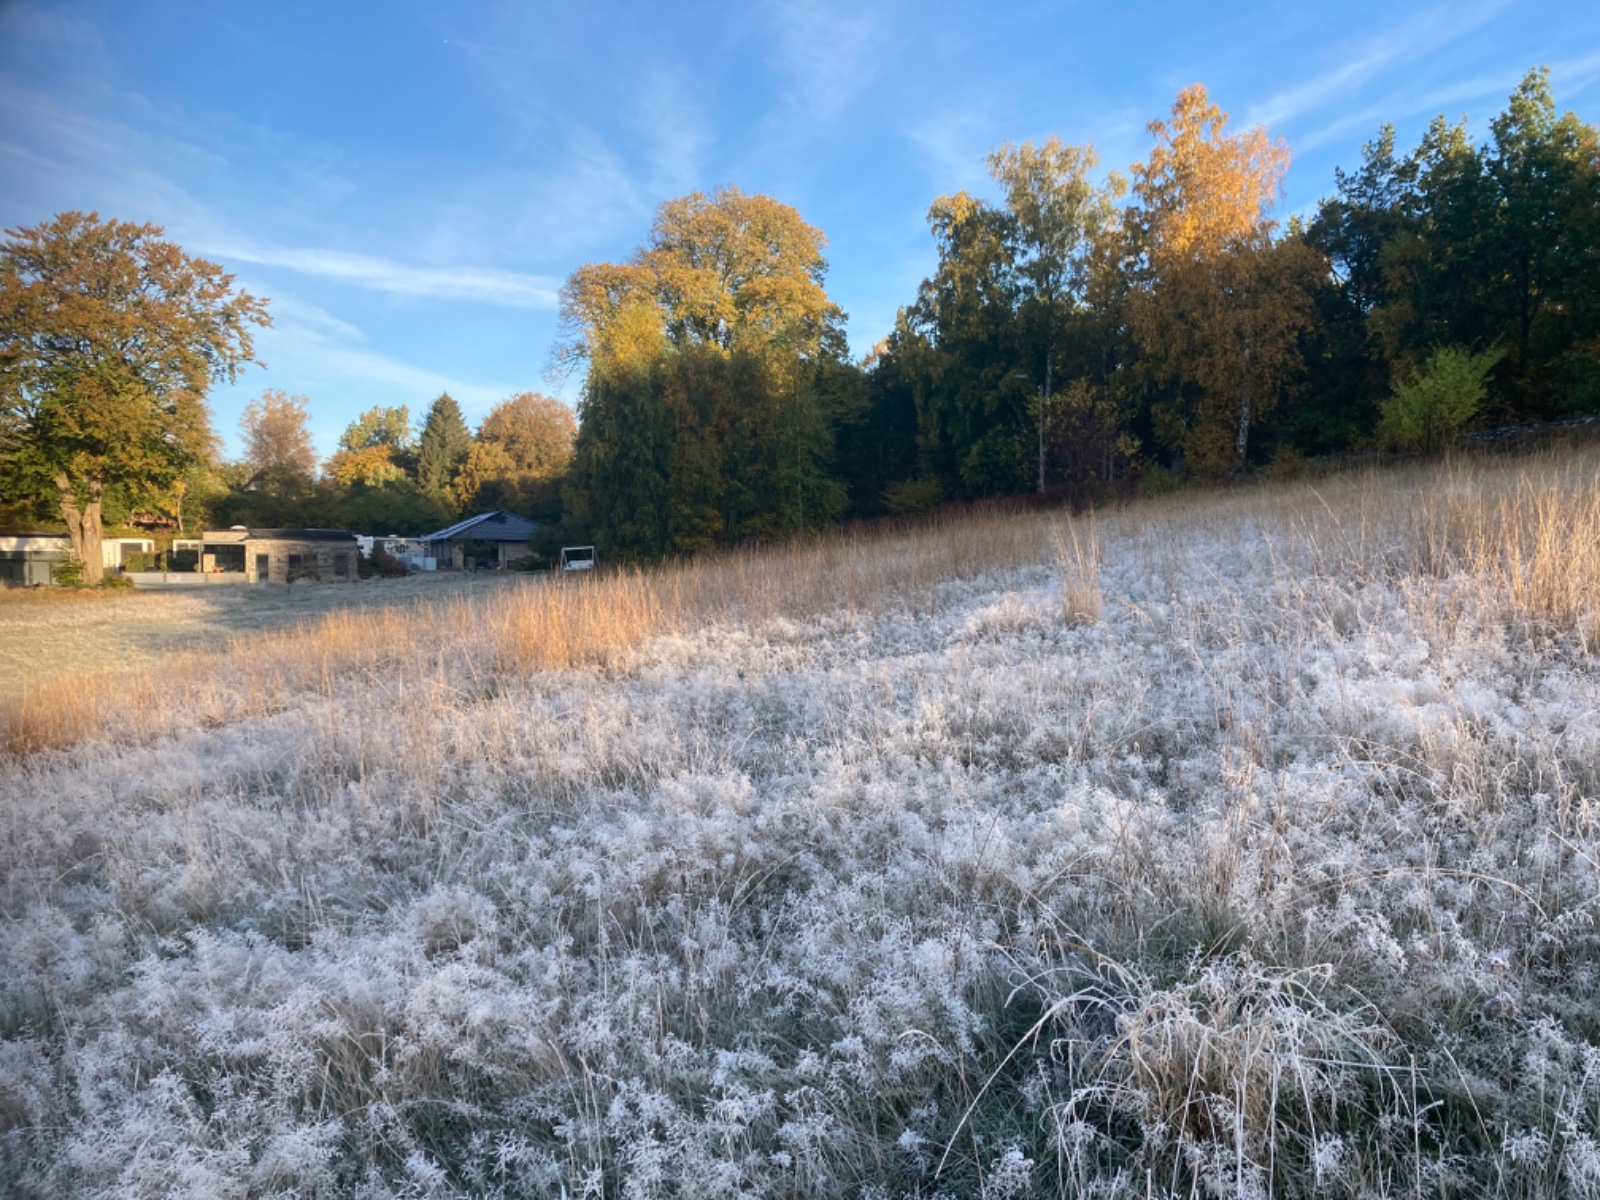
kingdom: Fungi
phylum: Basidiomycota
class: Agaricomycetes
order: Agaricales
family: Hygrophoraceae
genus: Hygrocybe
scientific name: Hygrocybe phaeococcinea
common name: sortdugget vokshat
